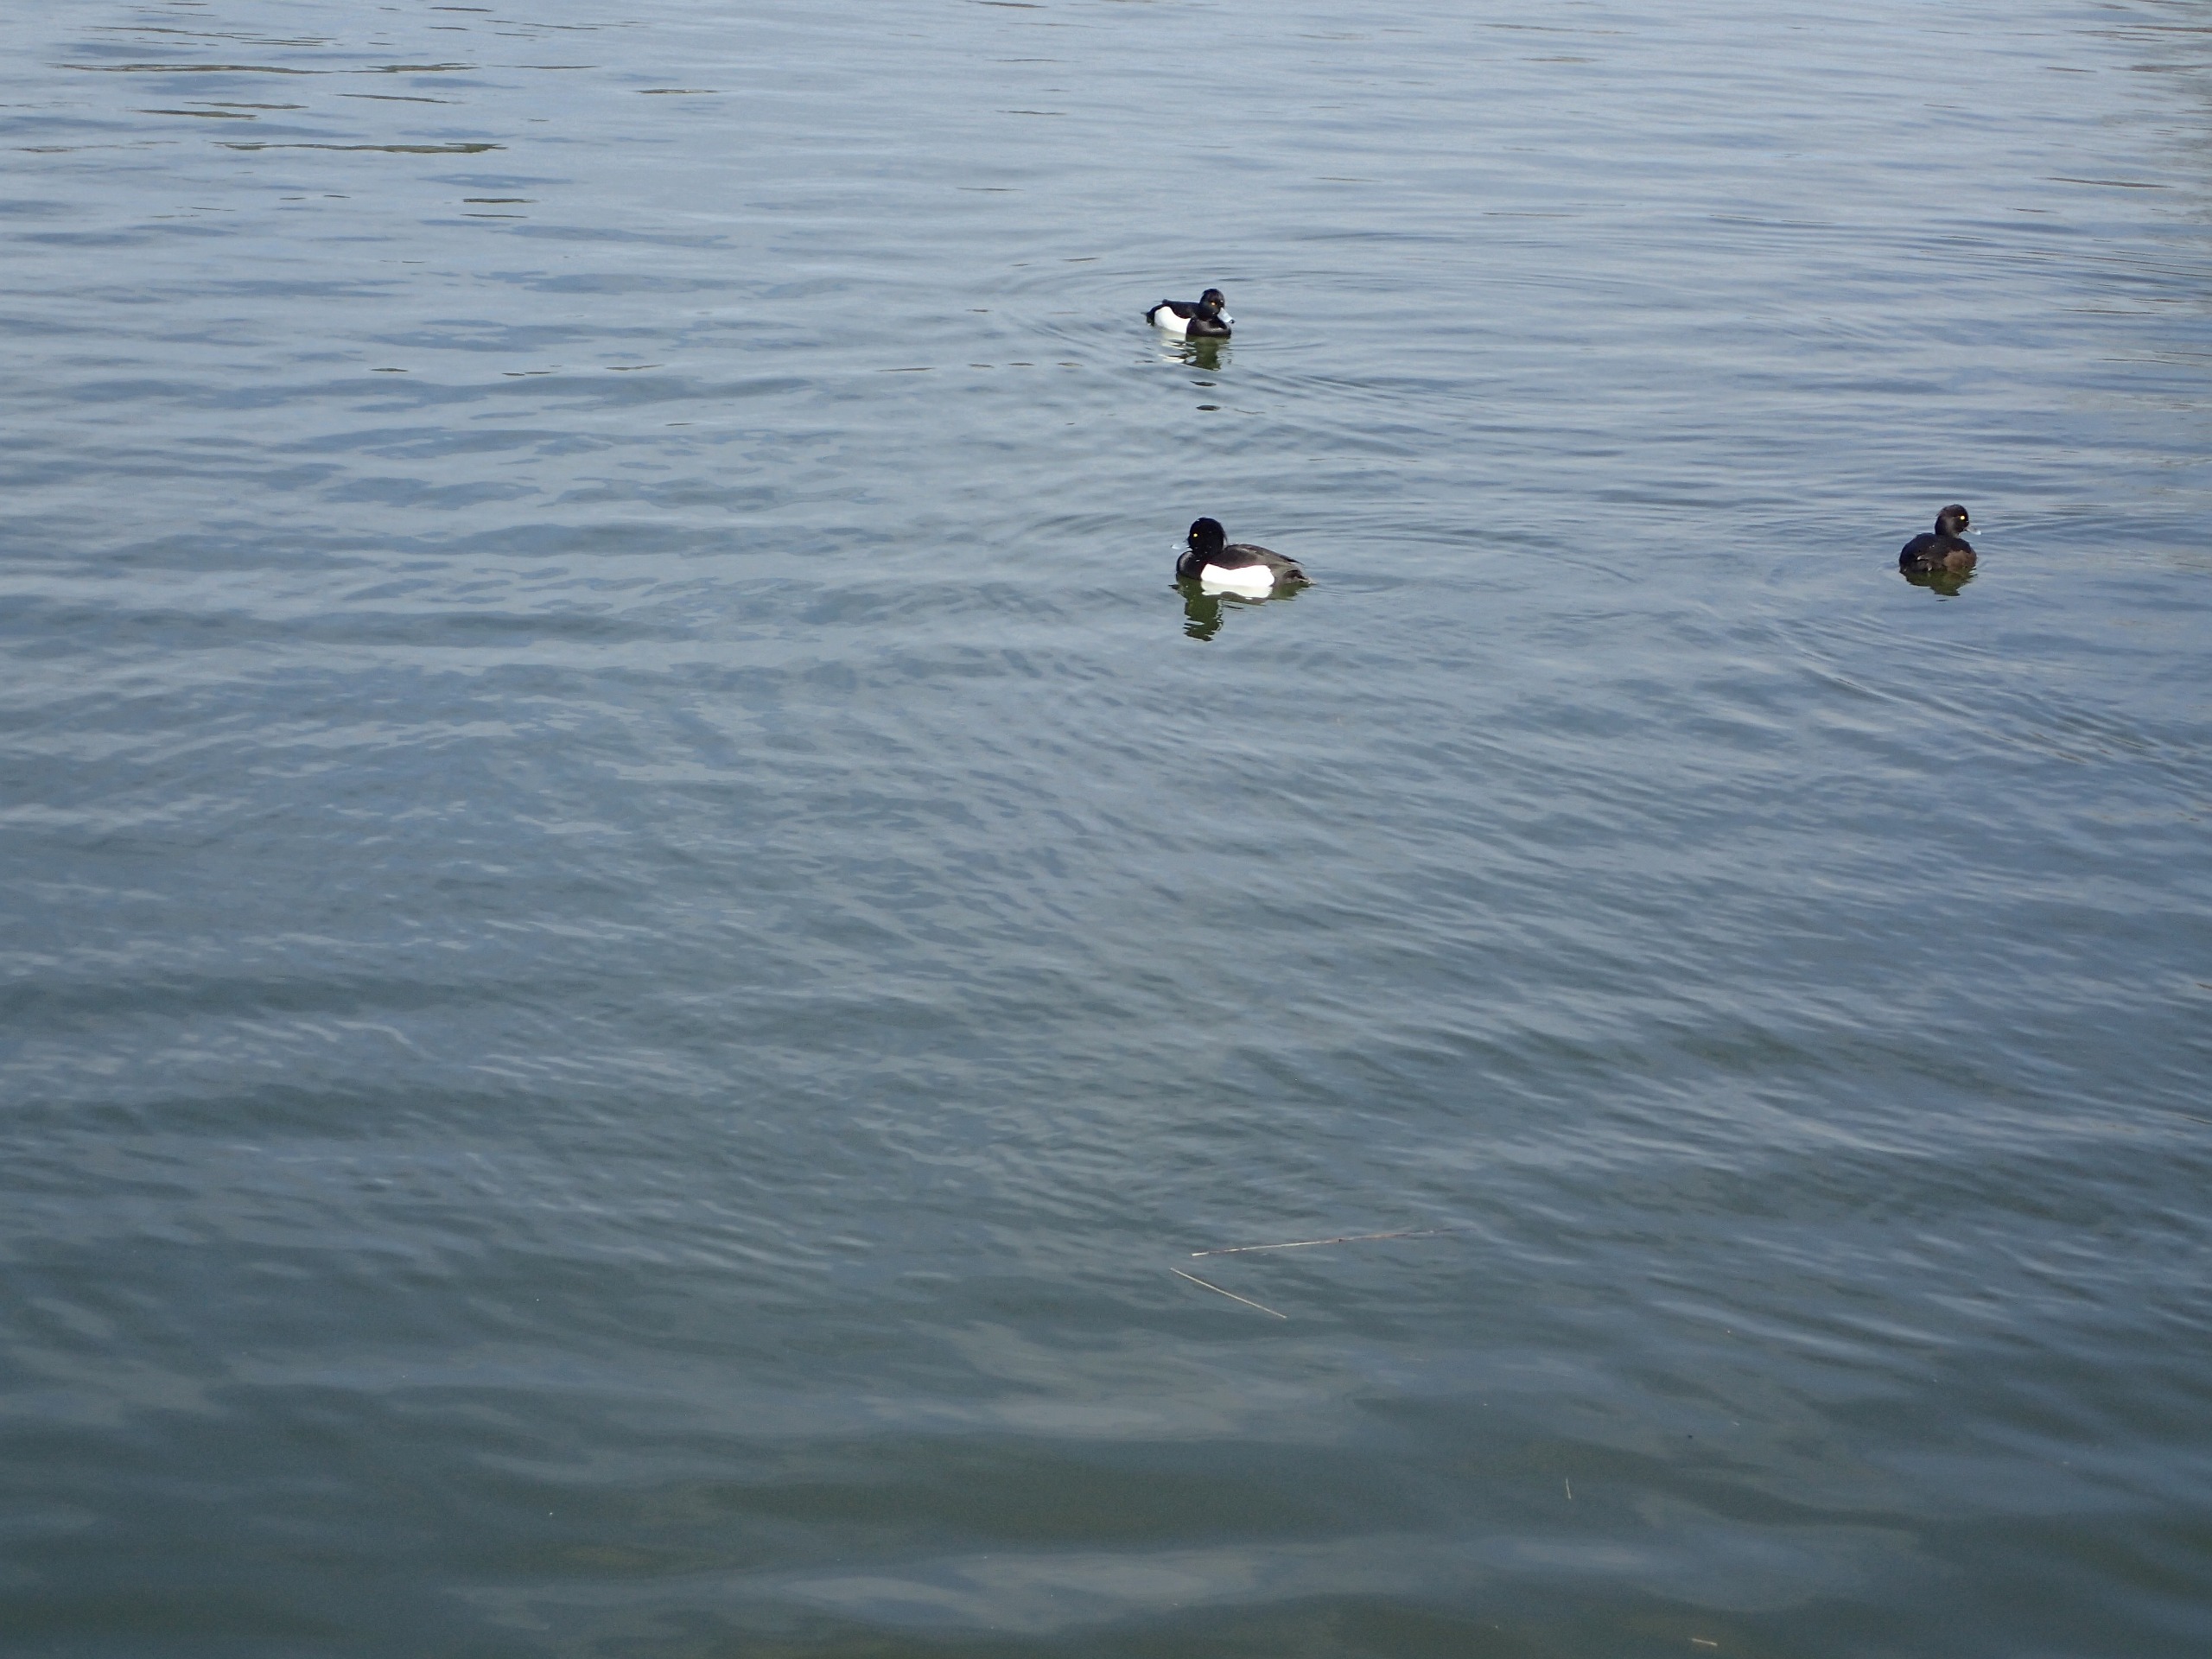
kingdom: Animalia
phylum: Chordata
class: Aves
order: Anseriformes
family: Anatidae
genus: Aythya
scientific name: Aythya fuligula
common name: Troldand
